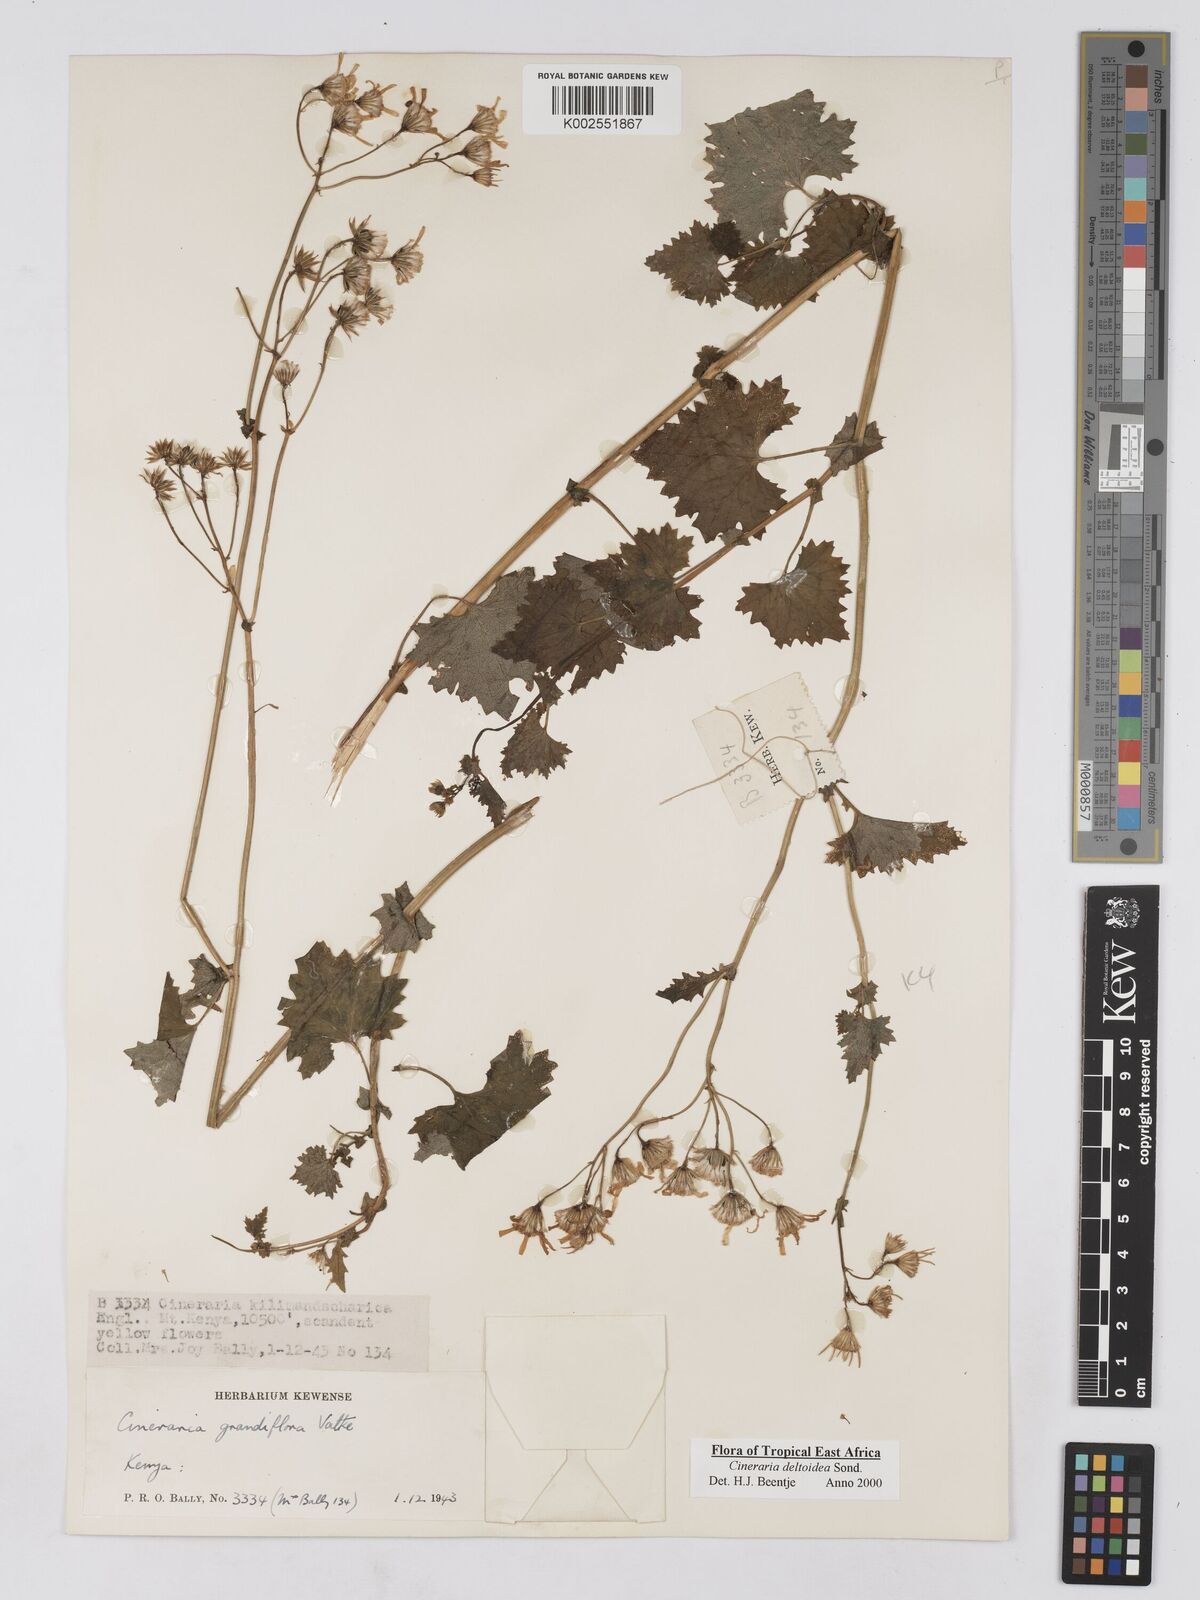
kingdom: Plantae
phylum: Tracheophyta
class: Magnoliopsida
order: Asterales
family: Asteraceae
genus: Cineraria
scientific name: Cineraria deltoidea
